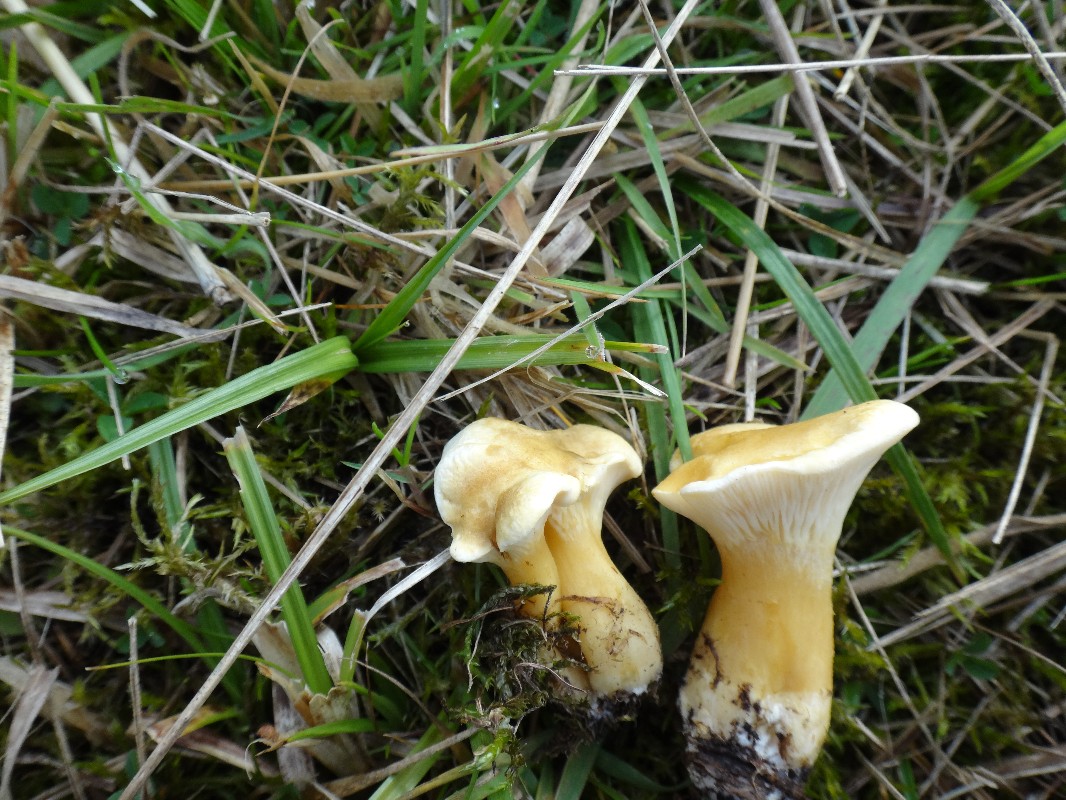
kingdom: Fungi
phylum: Basidiomycota
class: Agaricomycetes
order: Boletales
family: Hygrophoropsidaceae
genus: Hygrophoropsis
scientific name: Hygrophoropsis pallida
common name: bleg orangekantarel
